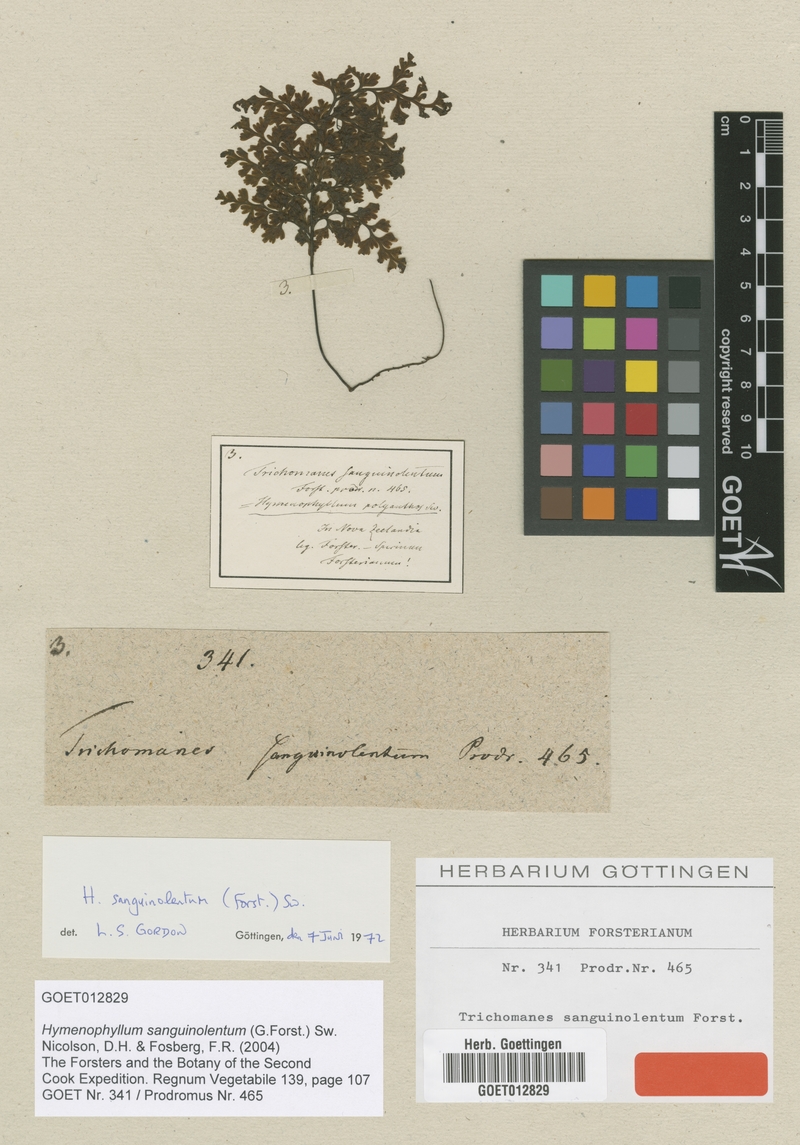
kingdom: Plantae
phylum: Tracheophyta
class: Polypodiopsida
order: Hymenophyllales
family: Hymenophyllaceae
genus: Hymenophyllum
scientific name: Hymenophyllum sanguinolentum
